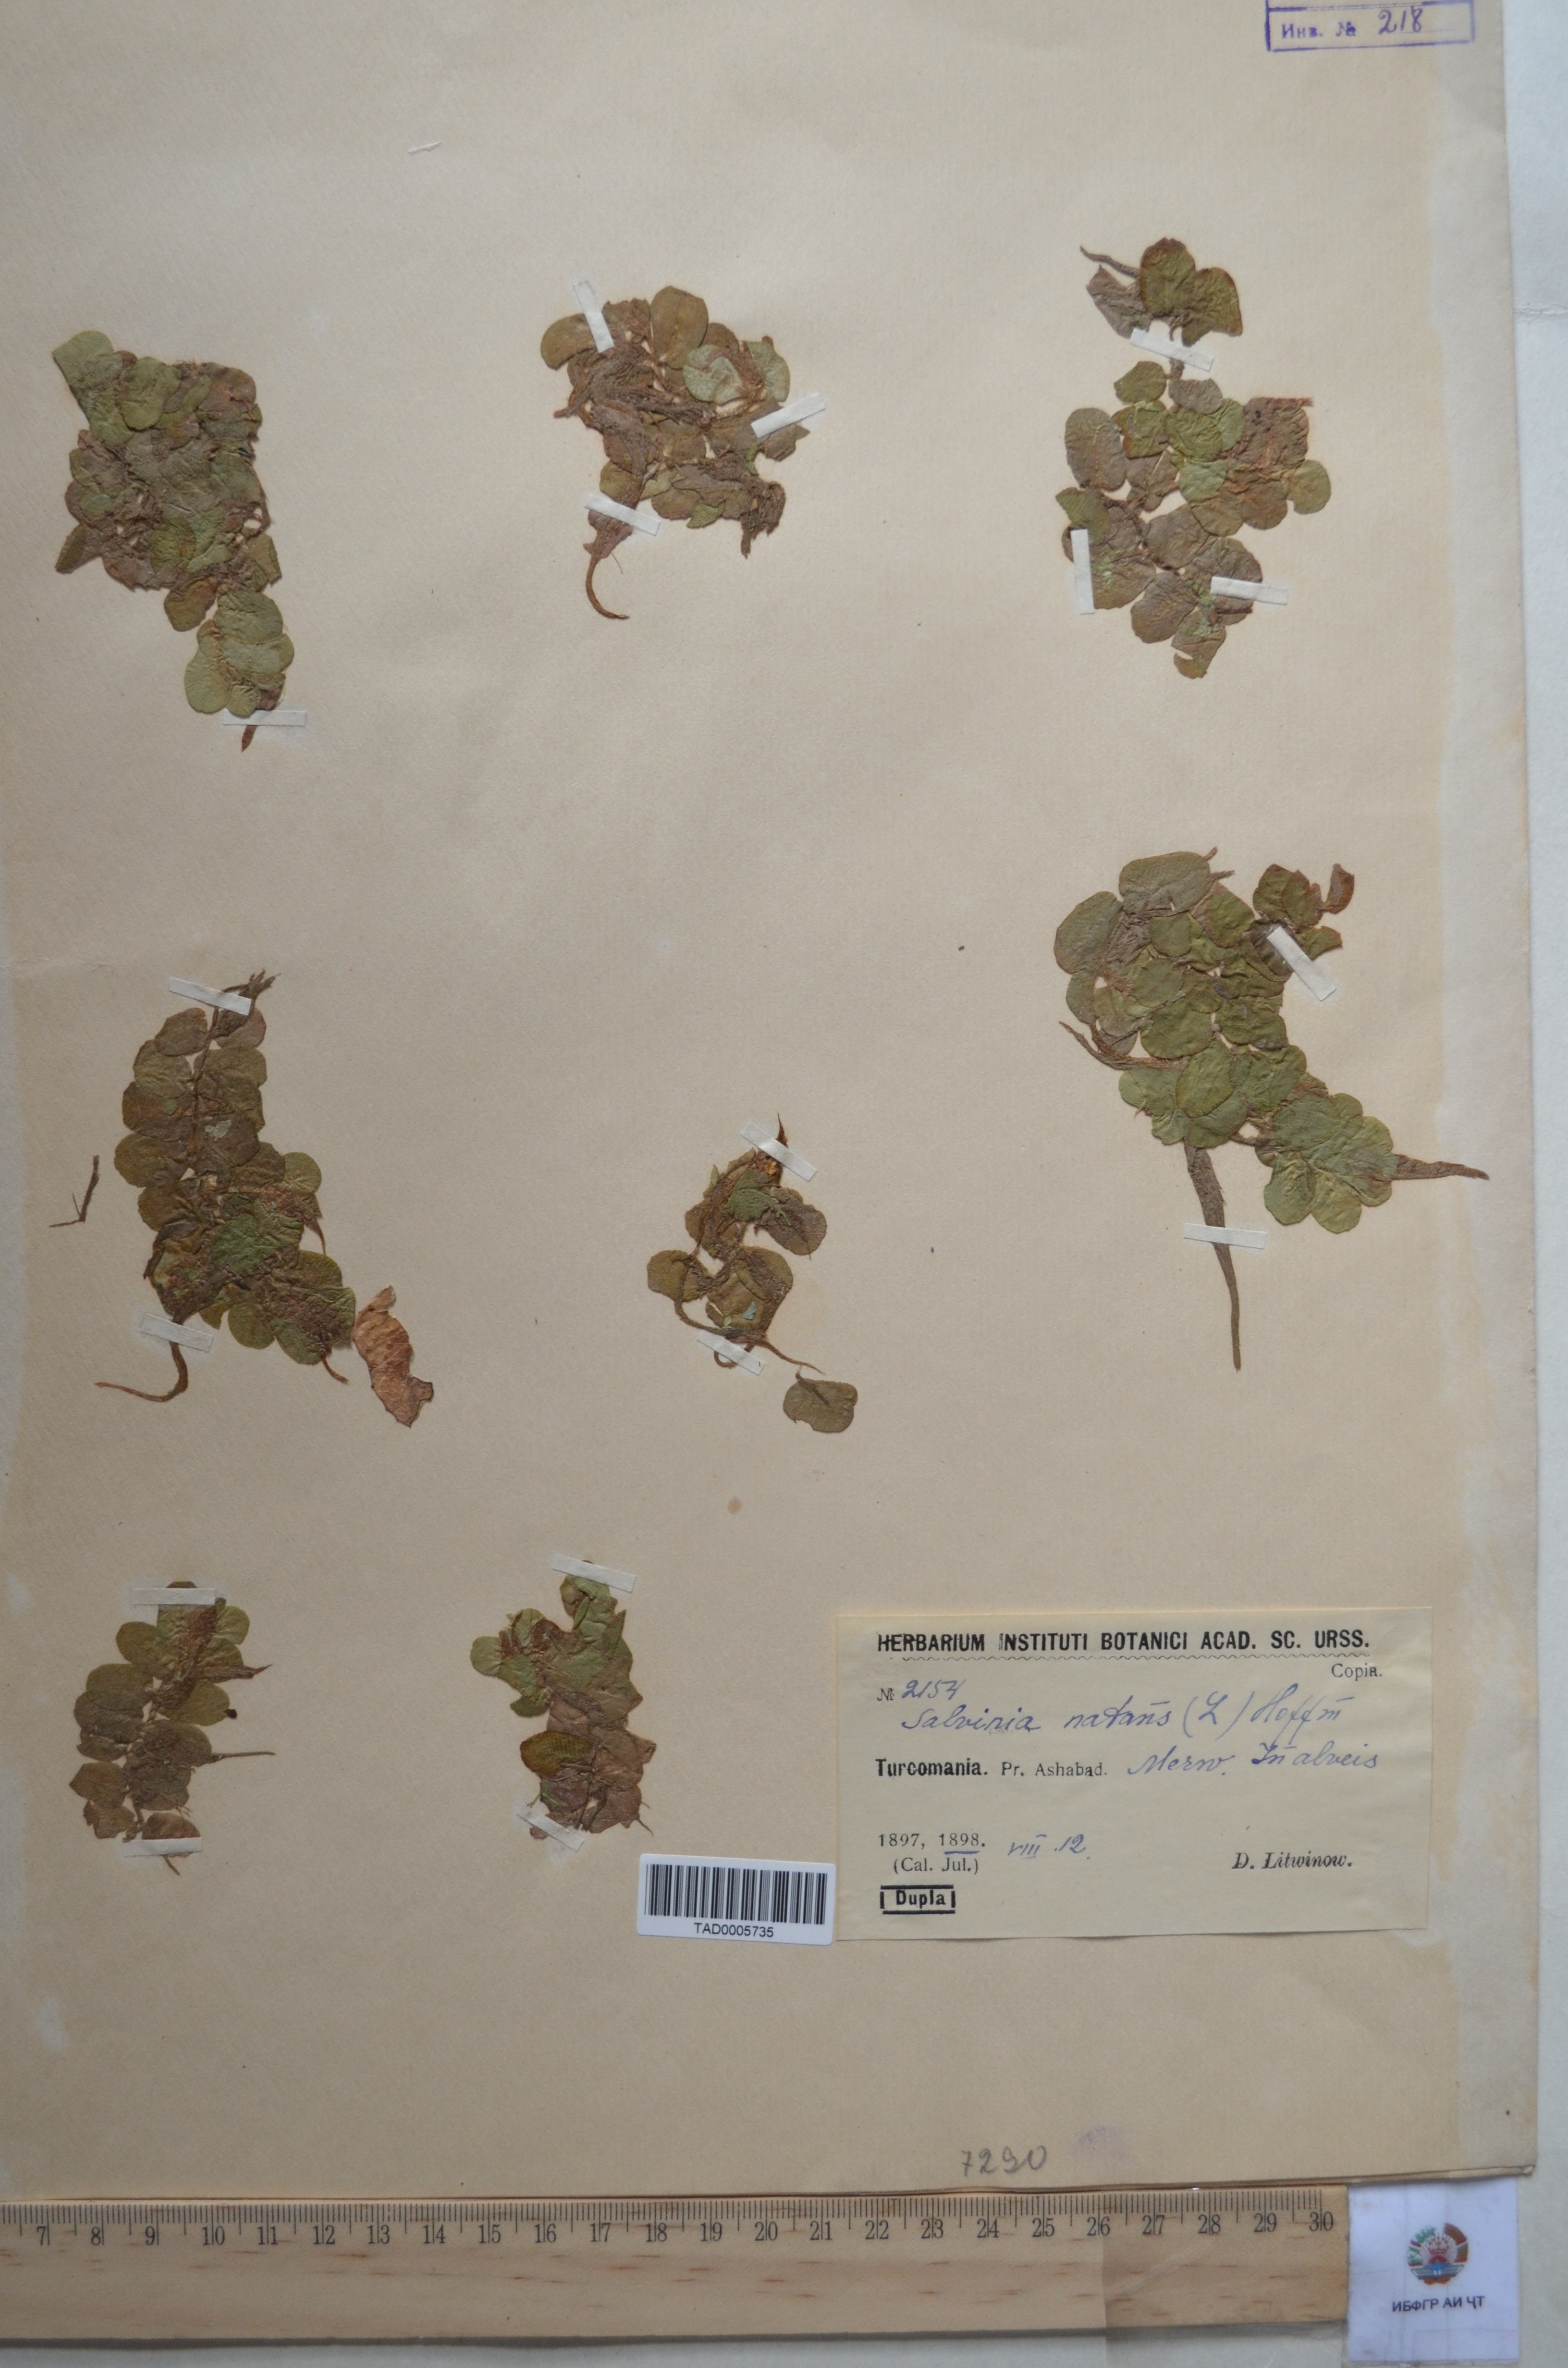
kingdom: Plantae
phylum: Tracheophyta
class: Polypodiopsida
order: Salviniales
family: Salviniaceae
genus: Salvinia
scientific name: Salvinia natans
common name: Floating fern
